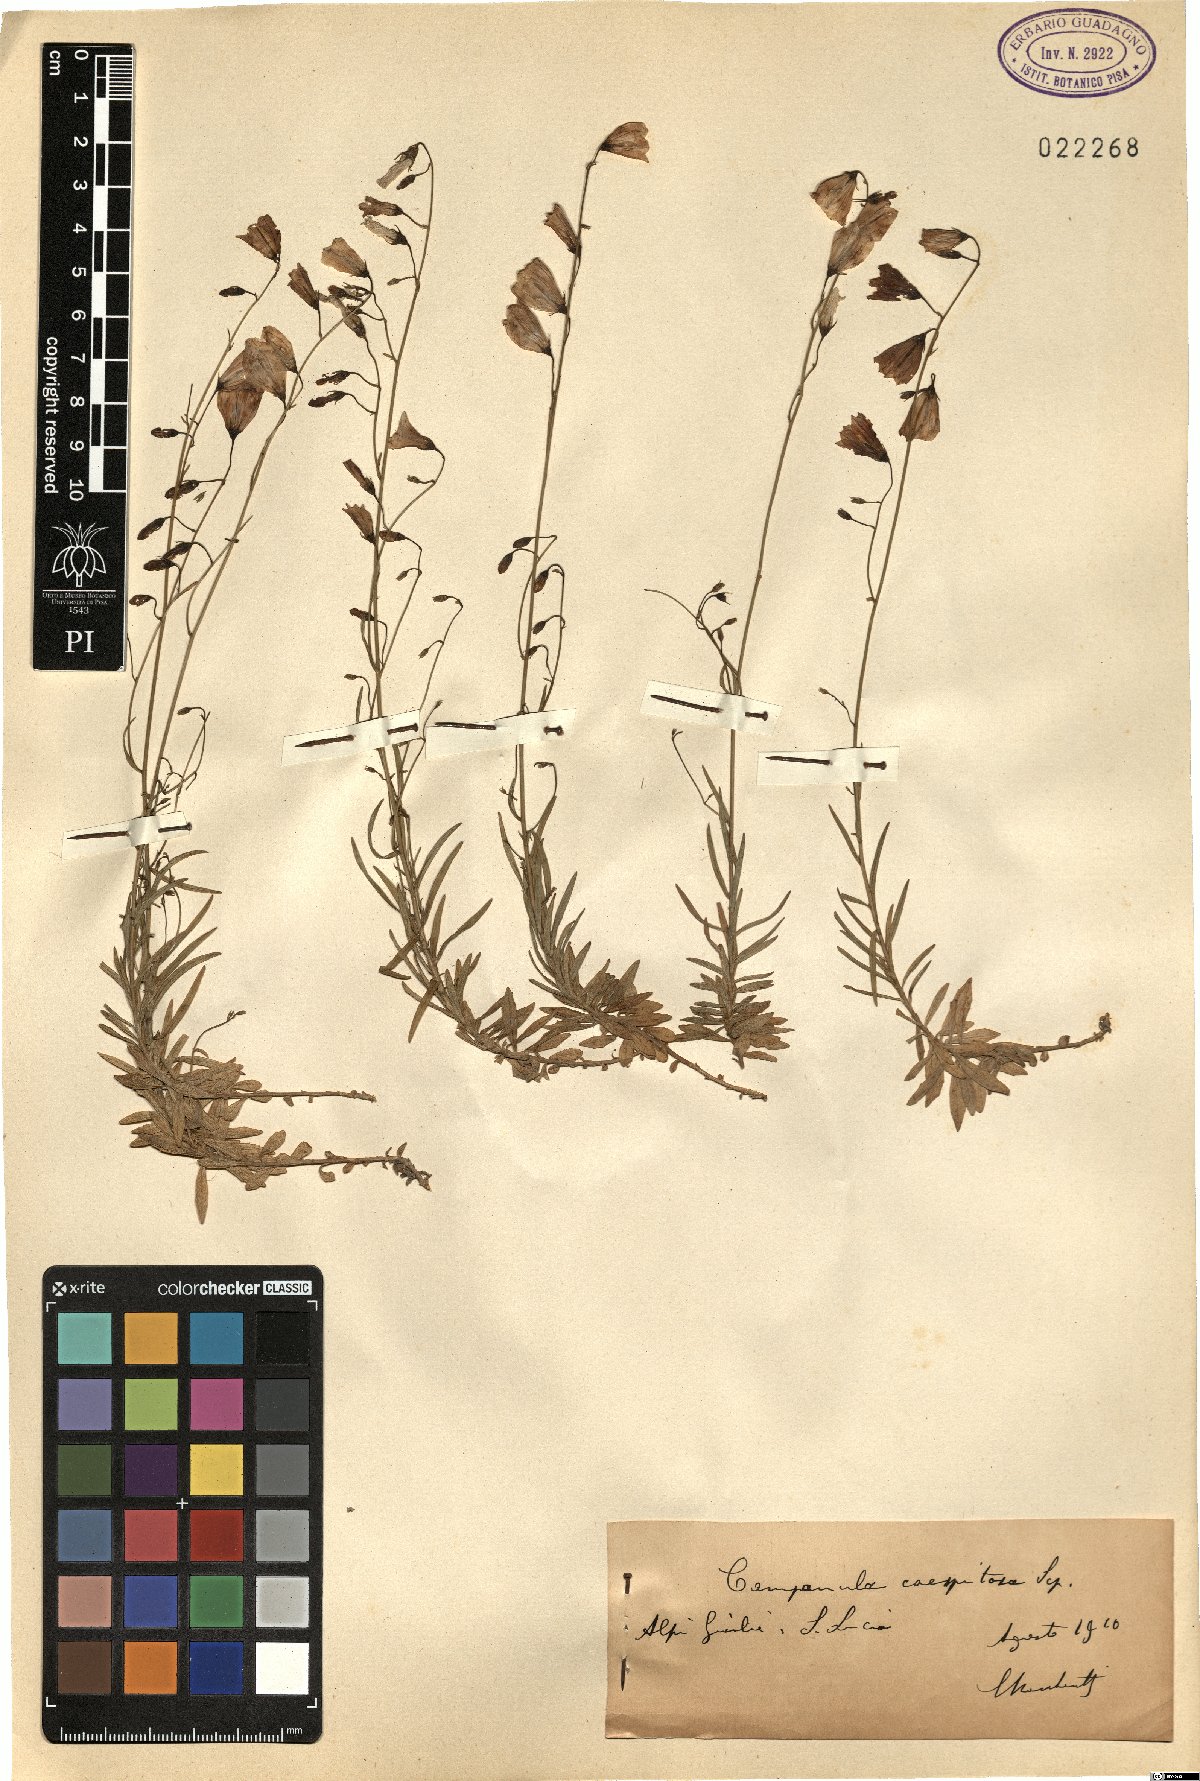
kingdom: Plantae
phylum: Tracheophyta
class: Magnoliopsida
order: Asterales
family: Campanulaceae
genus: Campanula
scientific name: Campanula caespitosa
